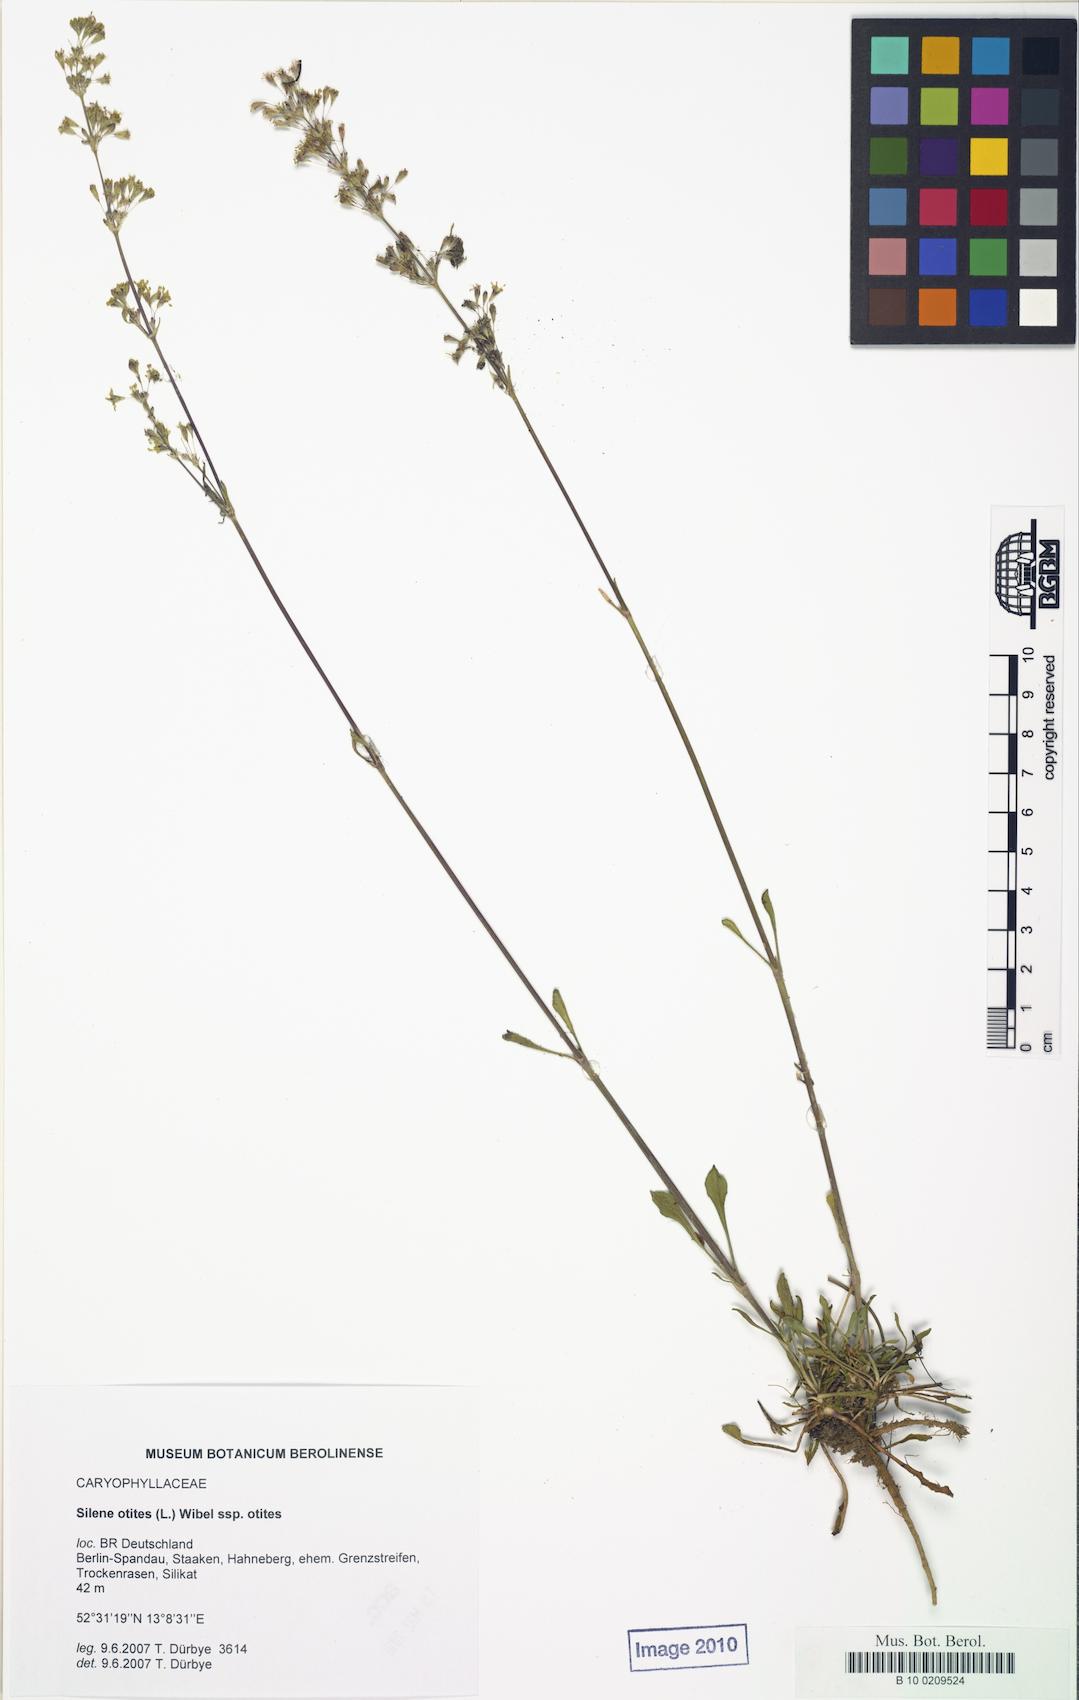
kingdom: Plantae
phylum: Tracheophyta
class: Magnoliopsida
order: Caryophyllales
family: Caryophyllaceae
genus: Silene
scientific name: Silene otites
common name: Spanish catchfly
